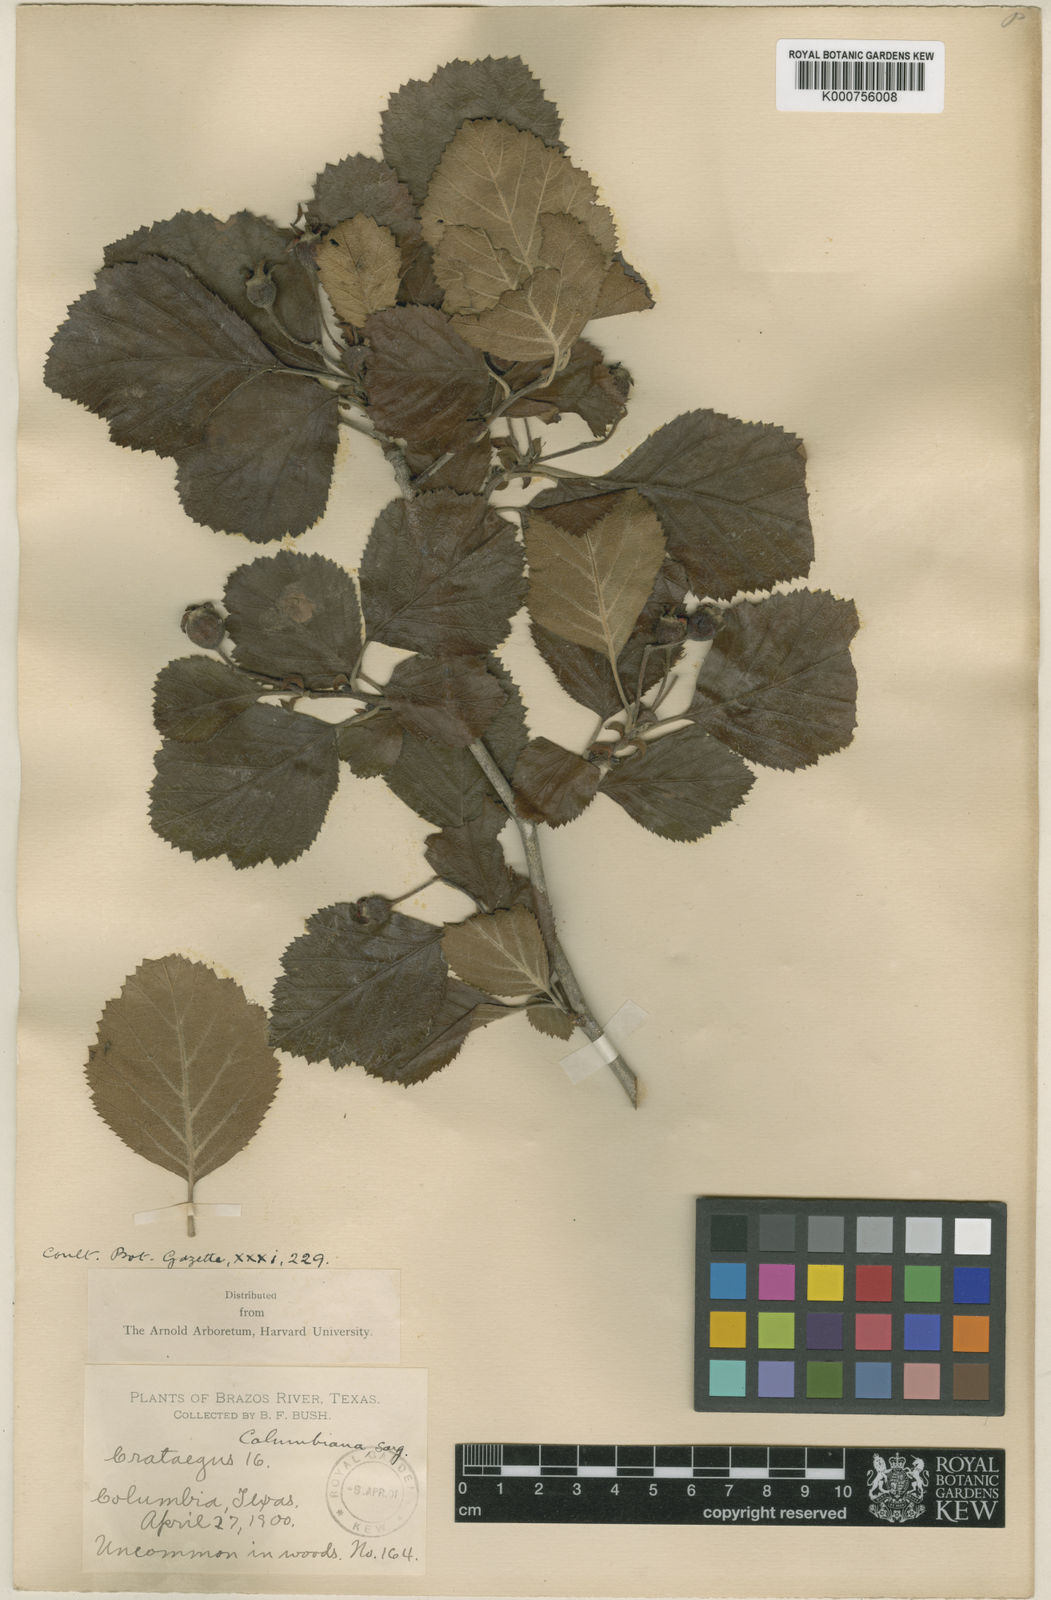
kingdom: Plantae
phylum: Tracheophyta
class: Magnoliopsida
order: Rosales
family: Rosaceae
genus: Crataegus
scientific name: Crataegus columbiana
